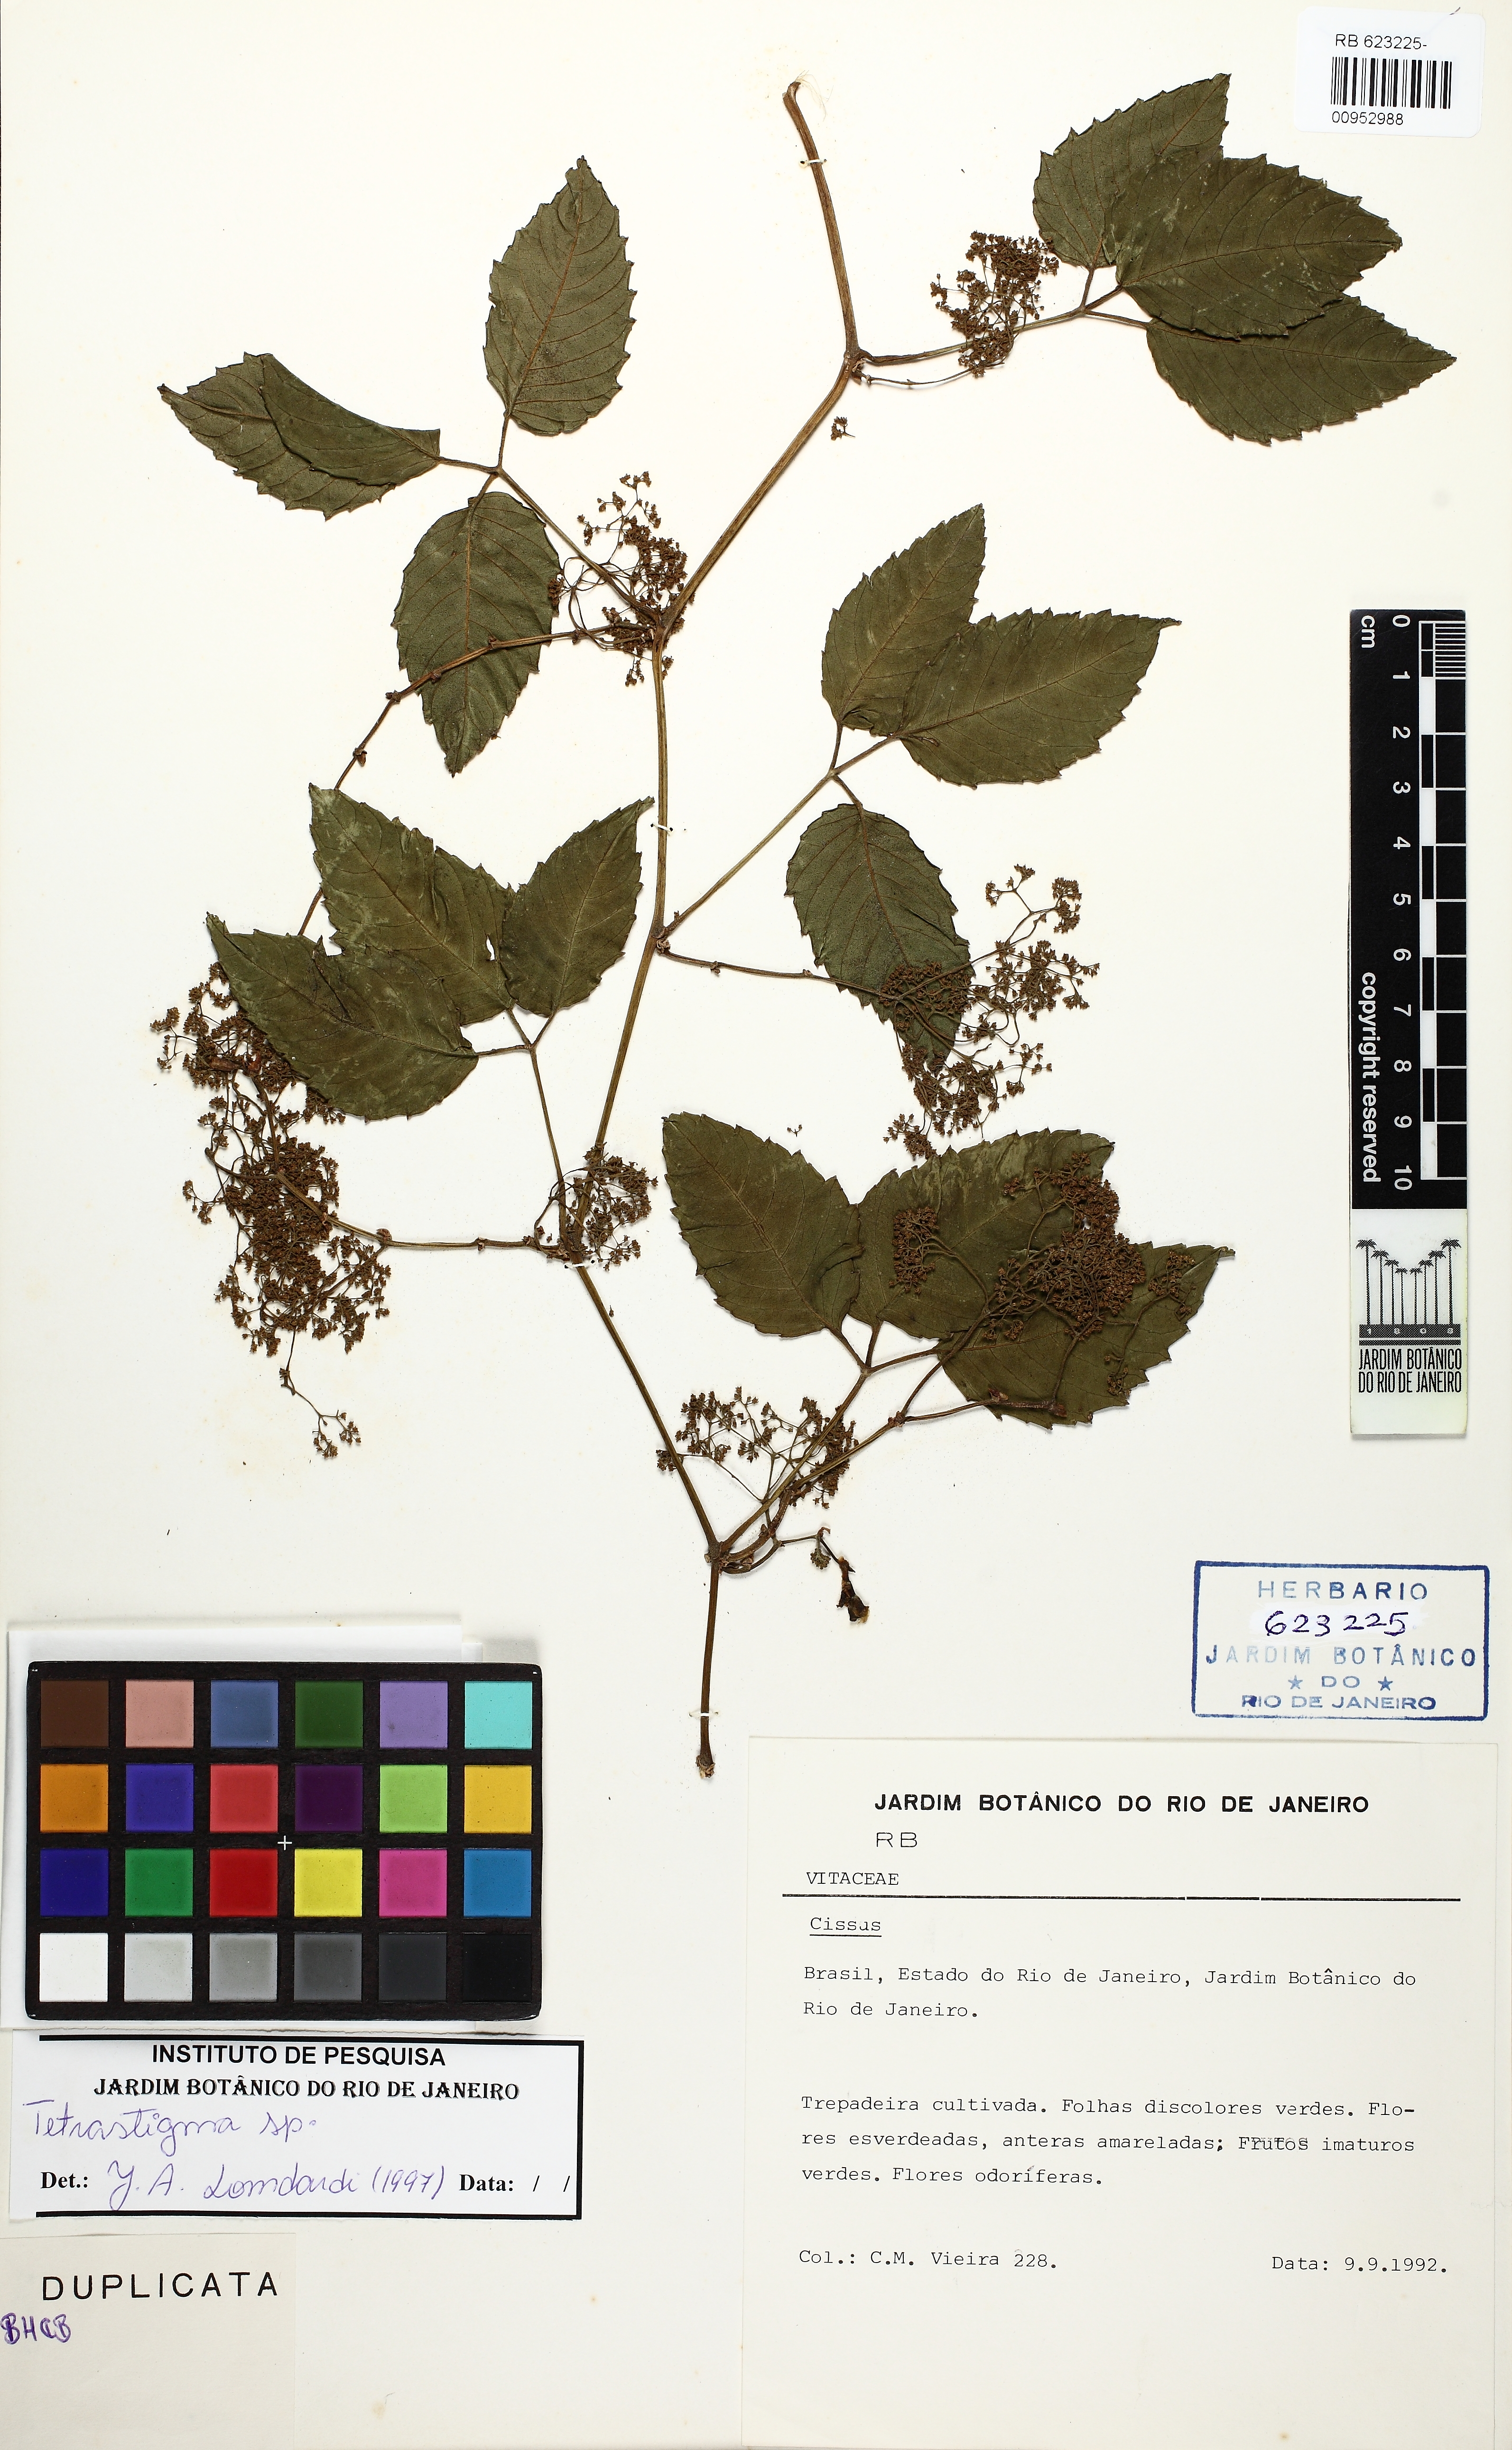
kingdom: Plantae
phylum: Tracheophyta
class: Magnoliopsida
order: Vitales
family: Vitaceae
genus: Tetrastigma
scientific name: Tetrastigma
